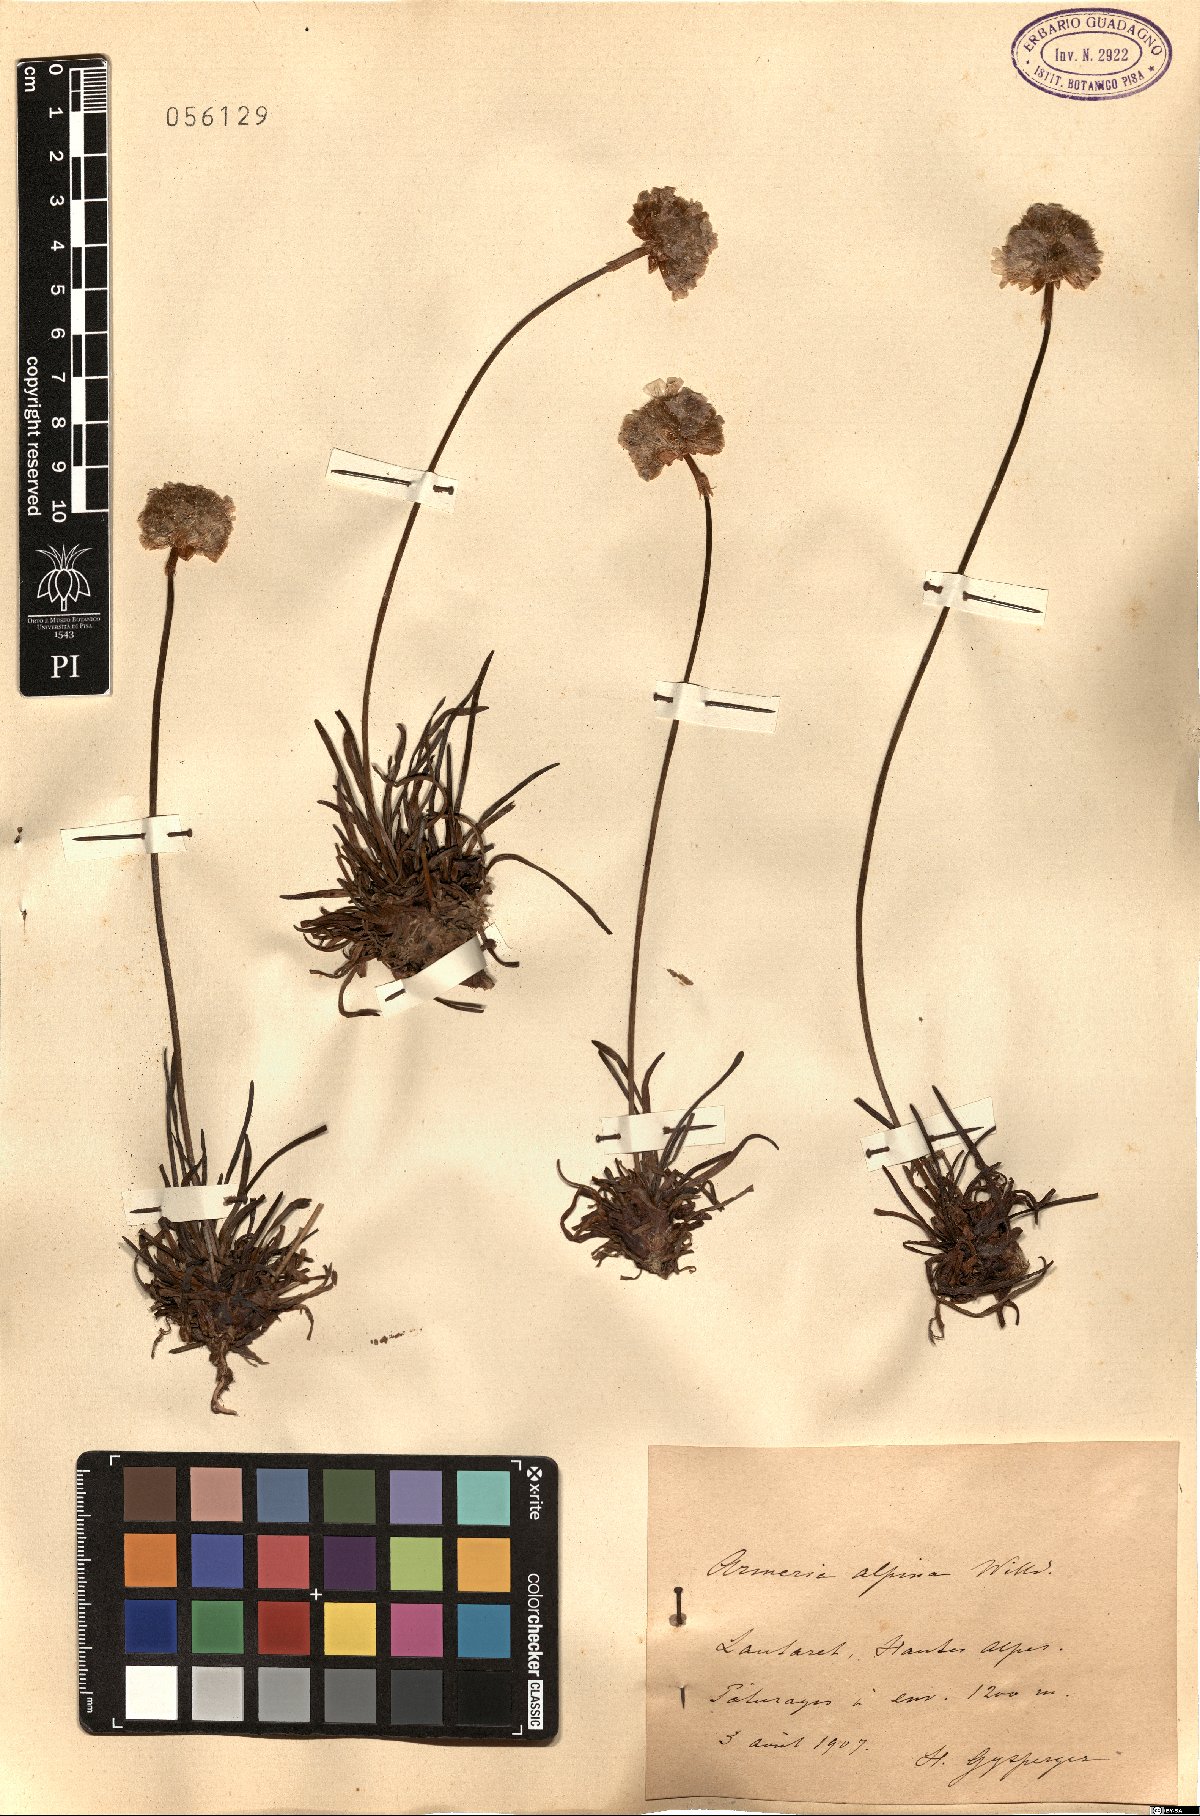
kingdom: Plantae
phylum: Tracheophyta
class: Magnoliopsida
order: Caryophyllales
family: Plumbaginaceae
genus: Armeria
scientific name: Armeria alpina
